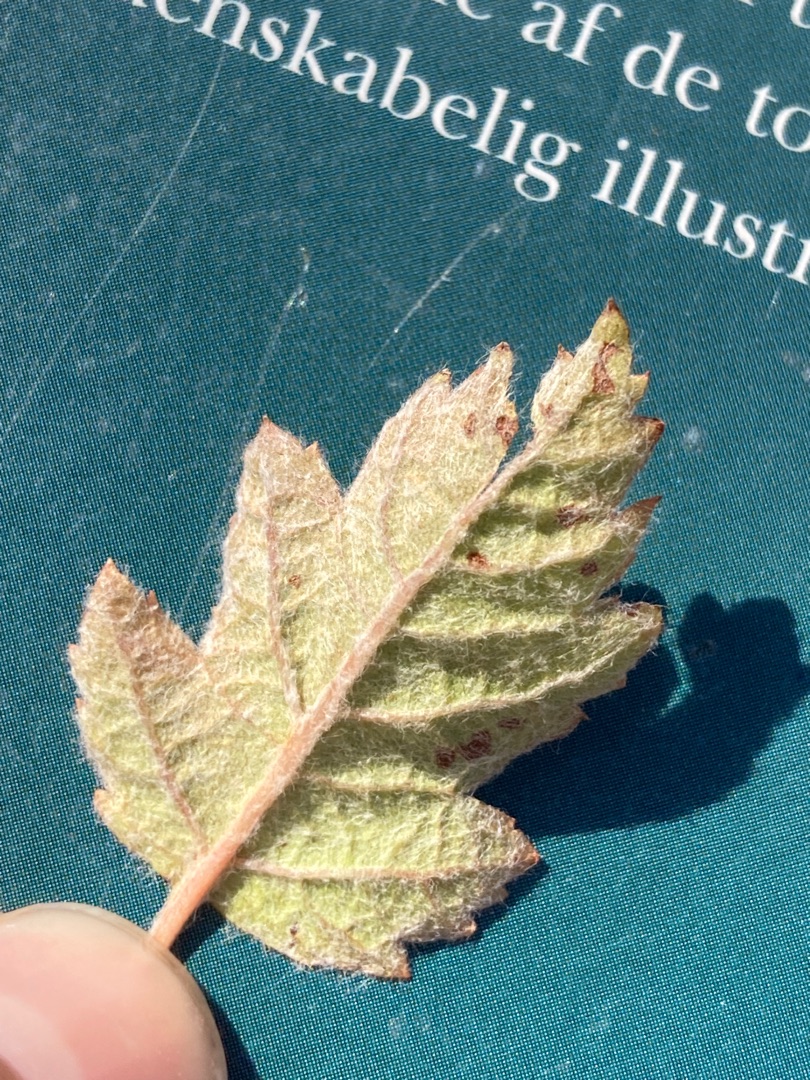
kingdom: Plantae
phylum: Tracheophyta
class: Magnoliopsida
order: Rosales
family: Rosaceae
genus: Scandosorbus
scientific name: Scandosorbus intermedia
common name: Selje-røn
